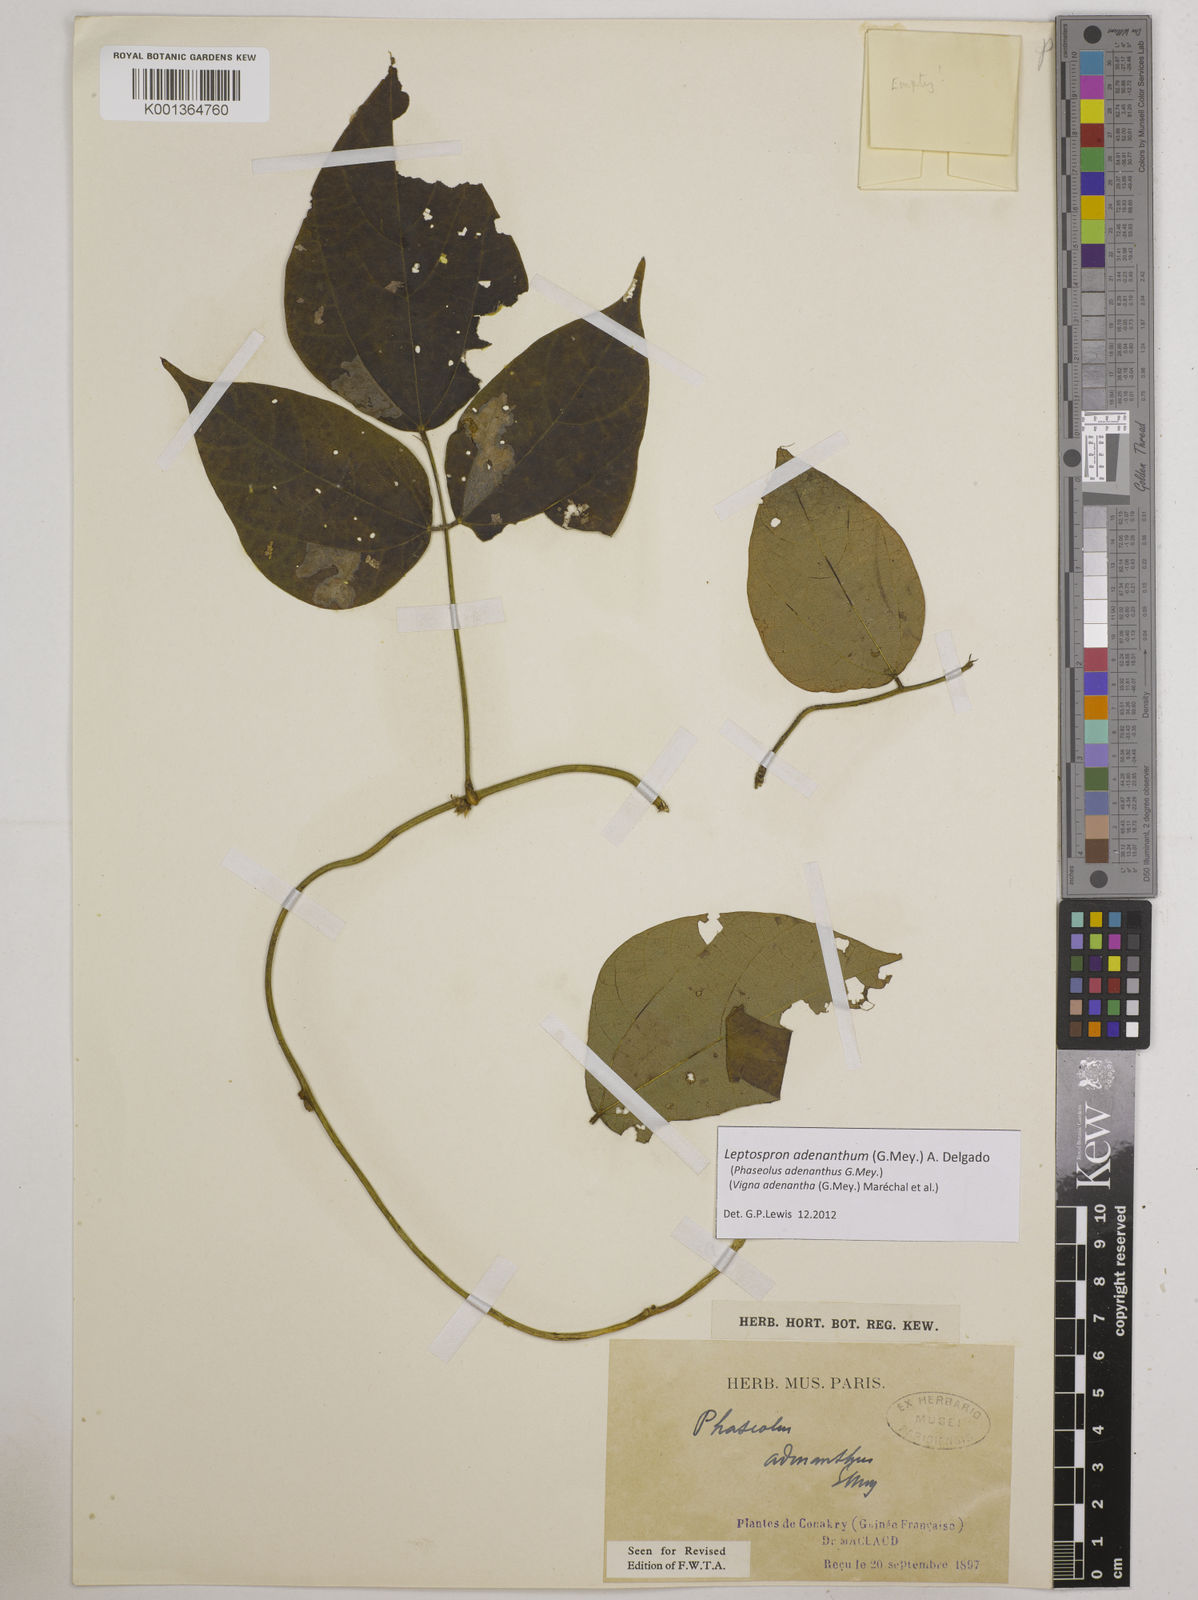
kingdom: Plantae
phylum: Tracheophyta
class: Magnoliopsida
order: Fabales
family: Fabaceae
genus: Leptospron
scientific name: Leptospron adenanthum
